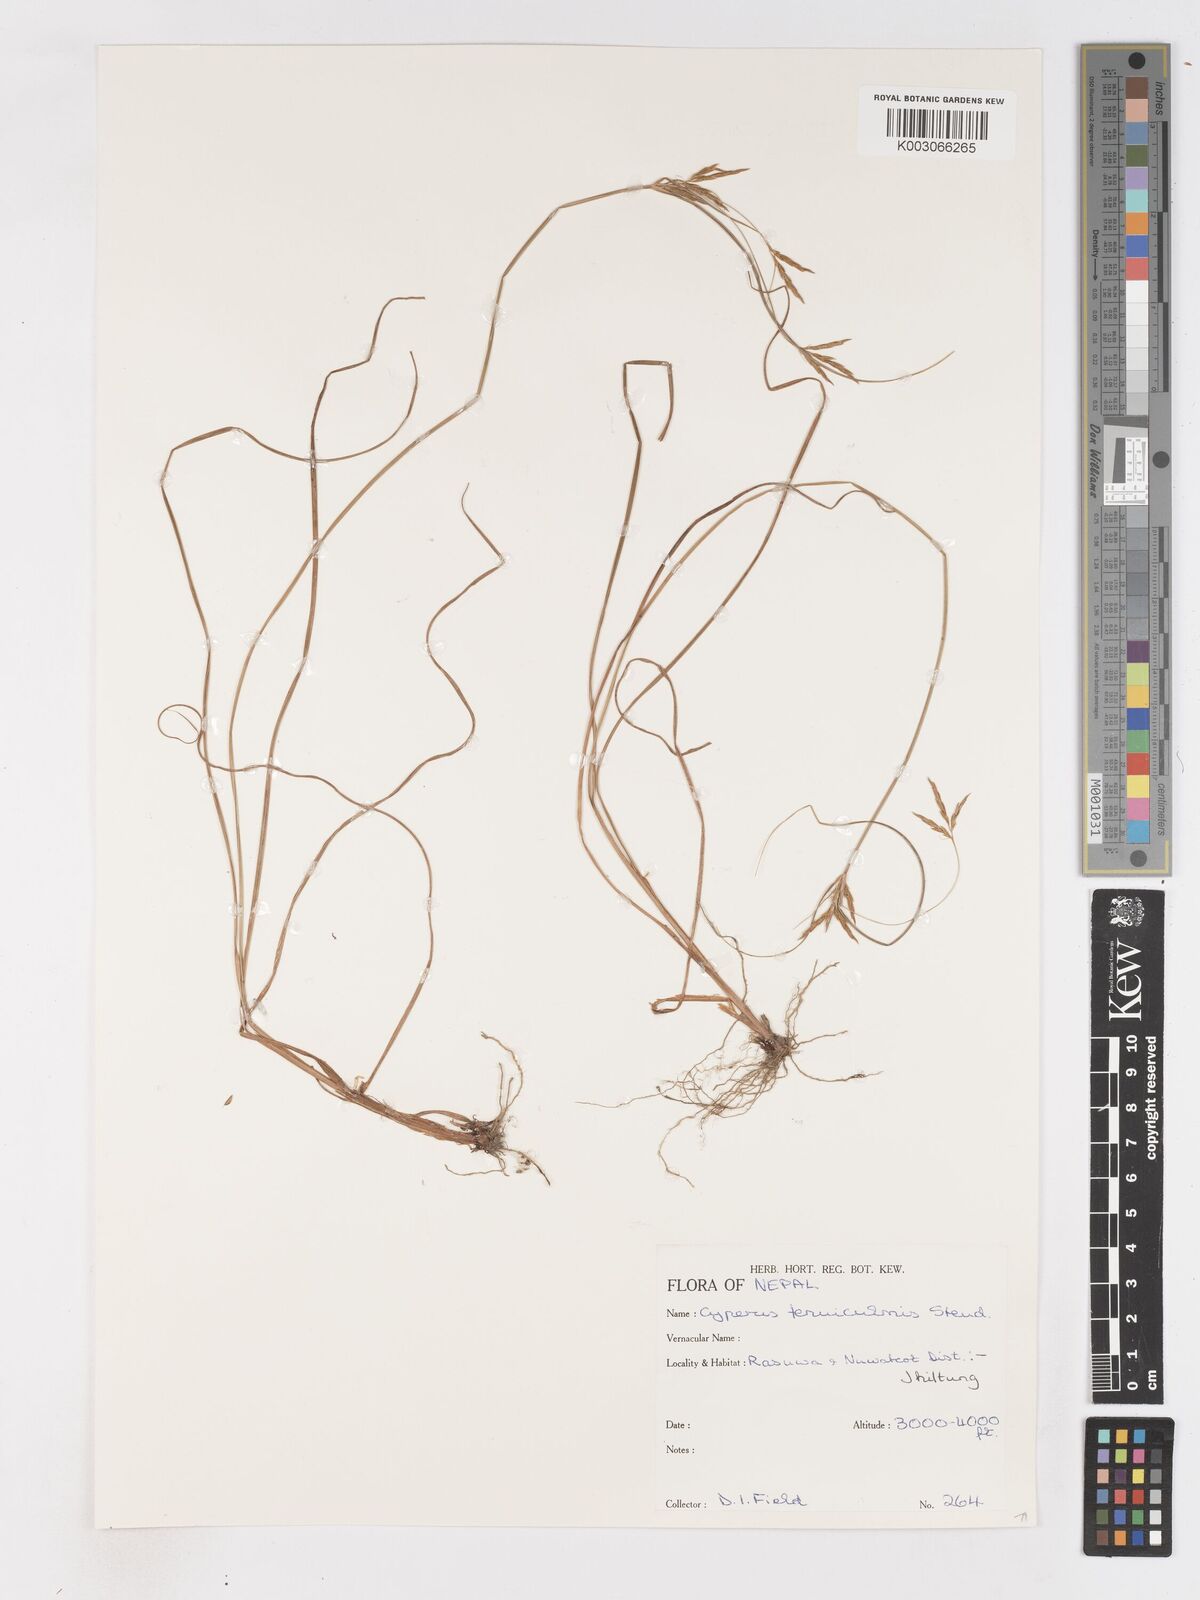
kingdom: Plantae
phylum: Tracheophyta
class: Liliopsida
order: Poales
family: Cyperaceae
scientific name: Cyperaceae
